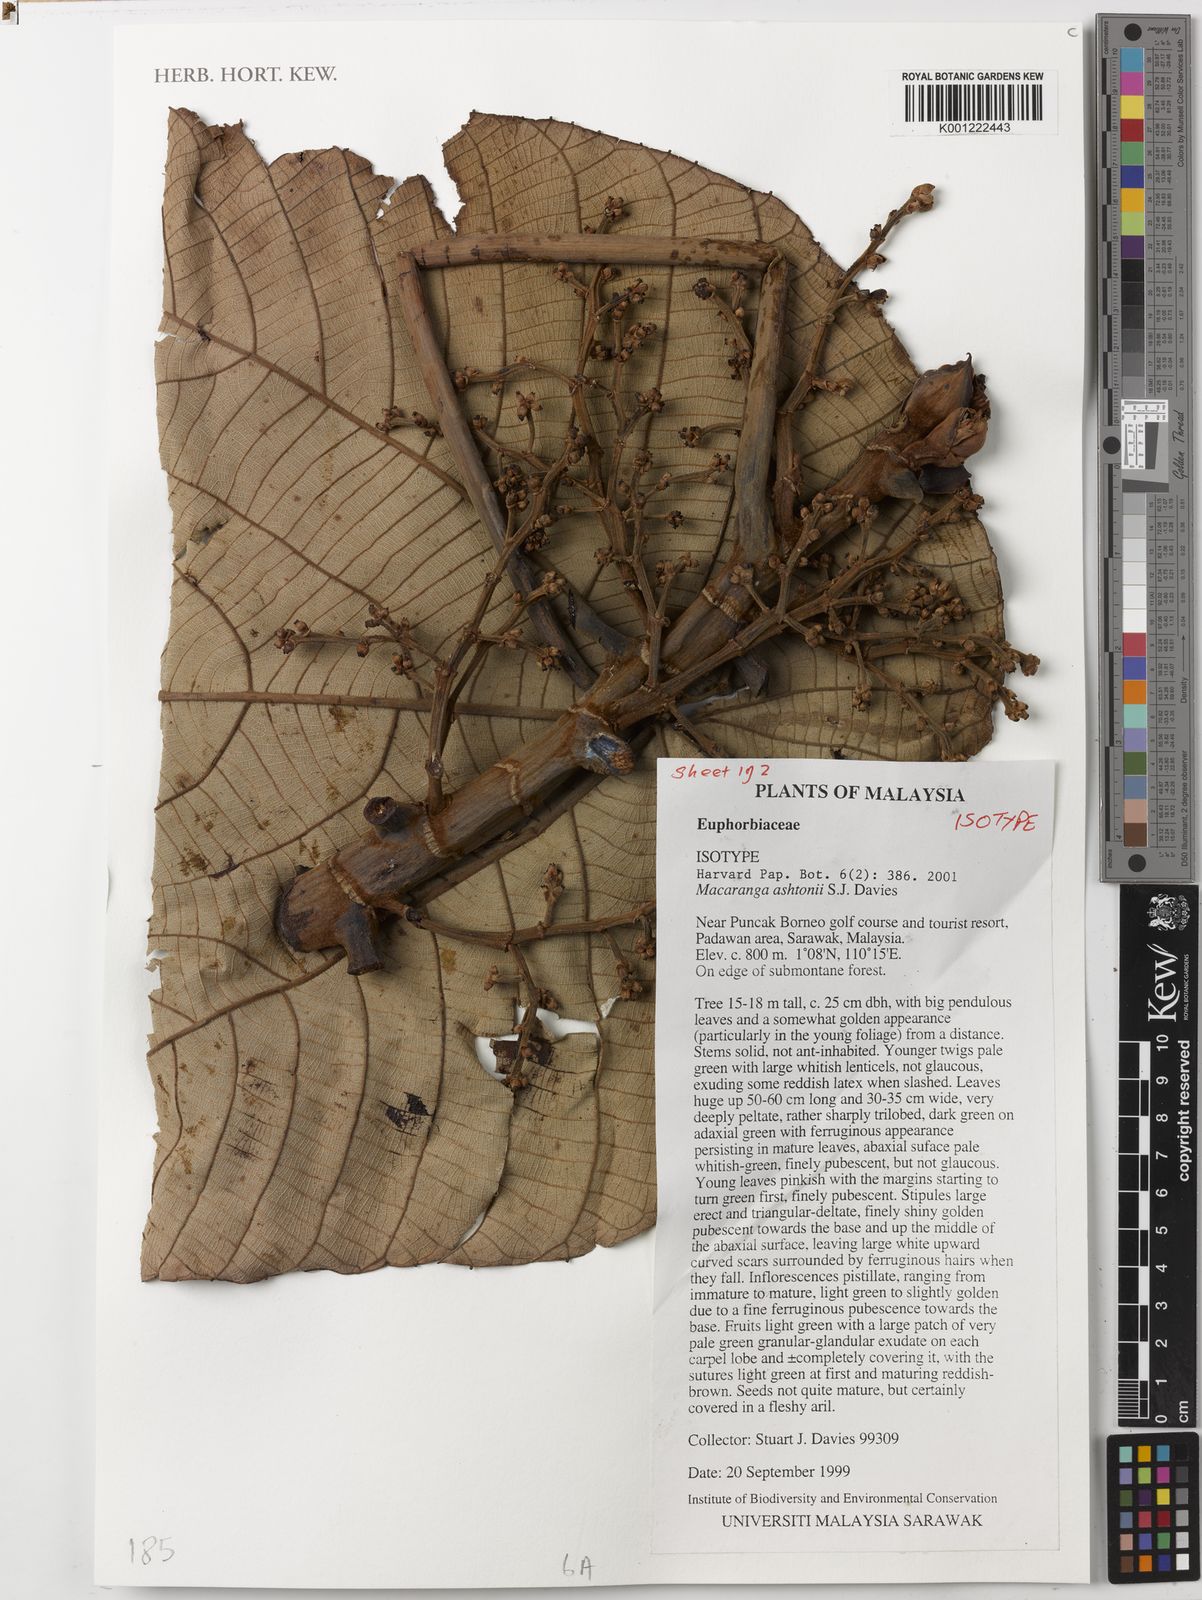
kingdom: Plantae
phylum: Tracheophyta
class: Magnoliopsida
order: Malpighiales
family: Euphorbiaceae
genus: Macaranga
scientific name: Macaranga ashtonii
